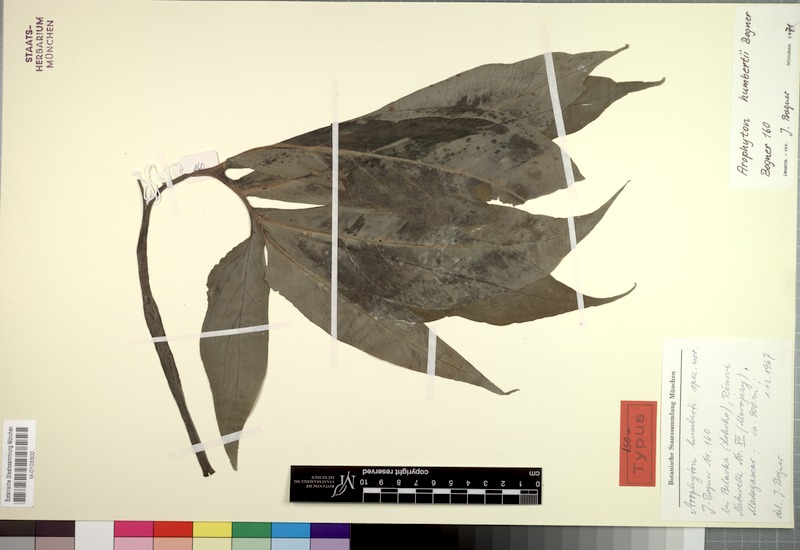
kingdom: Plantae
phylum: Tracheophyta
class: Liliopsida
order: Alismatales
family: Araceae
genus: Arophyton
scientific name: Arophyton humbertii
